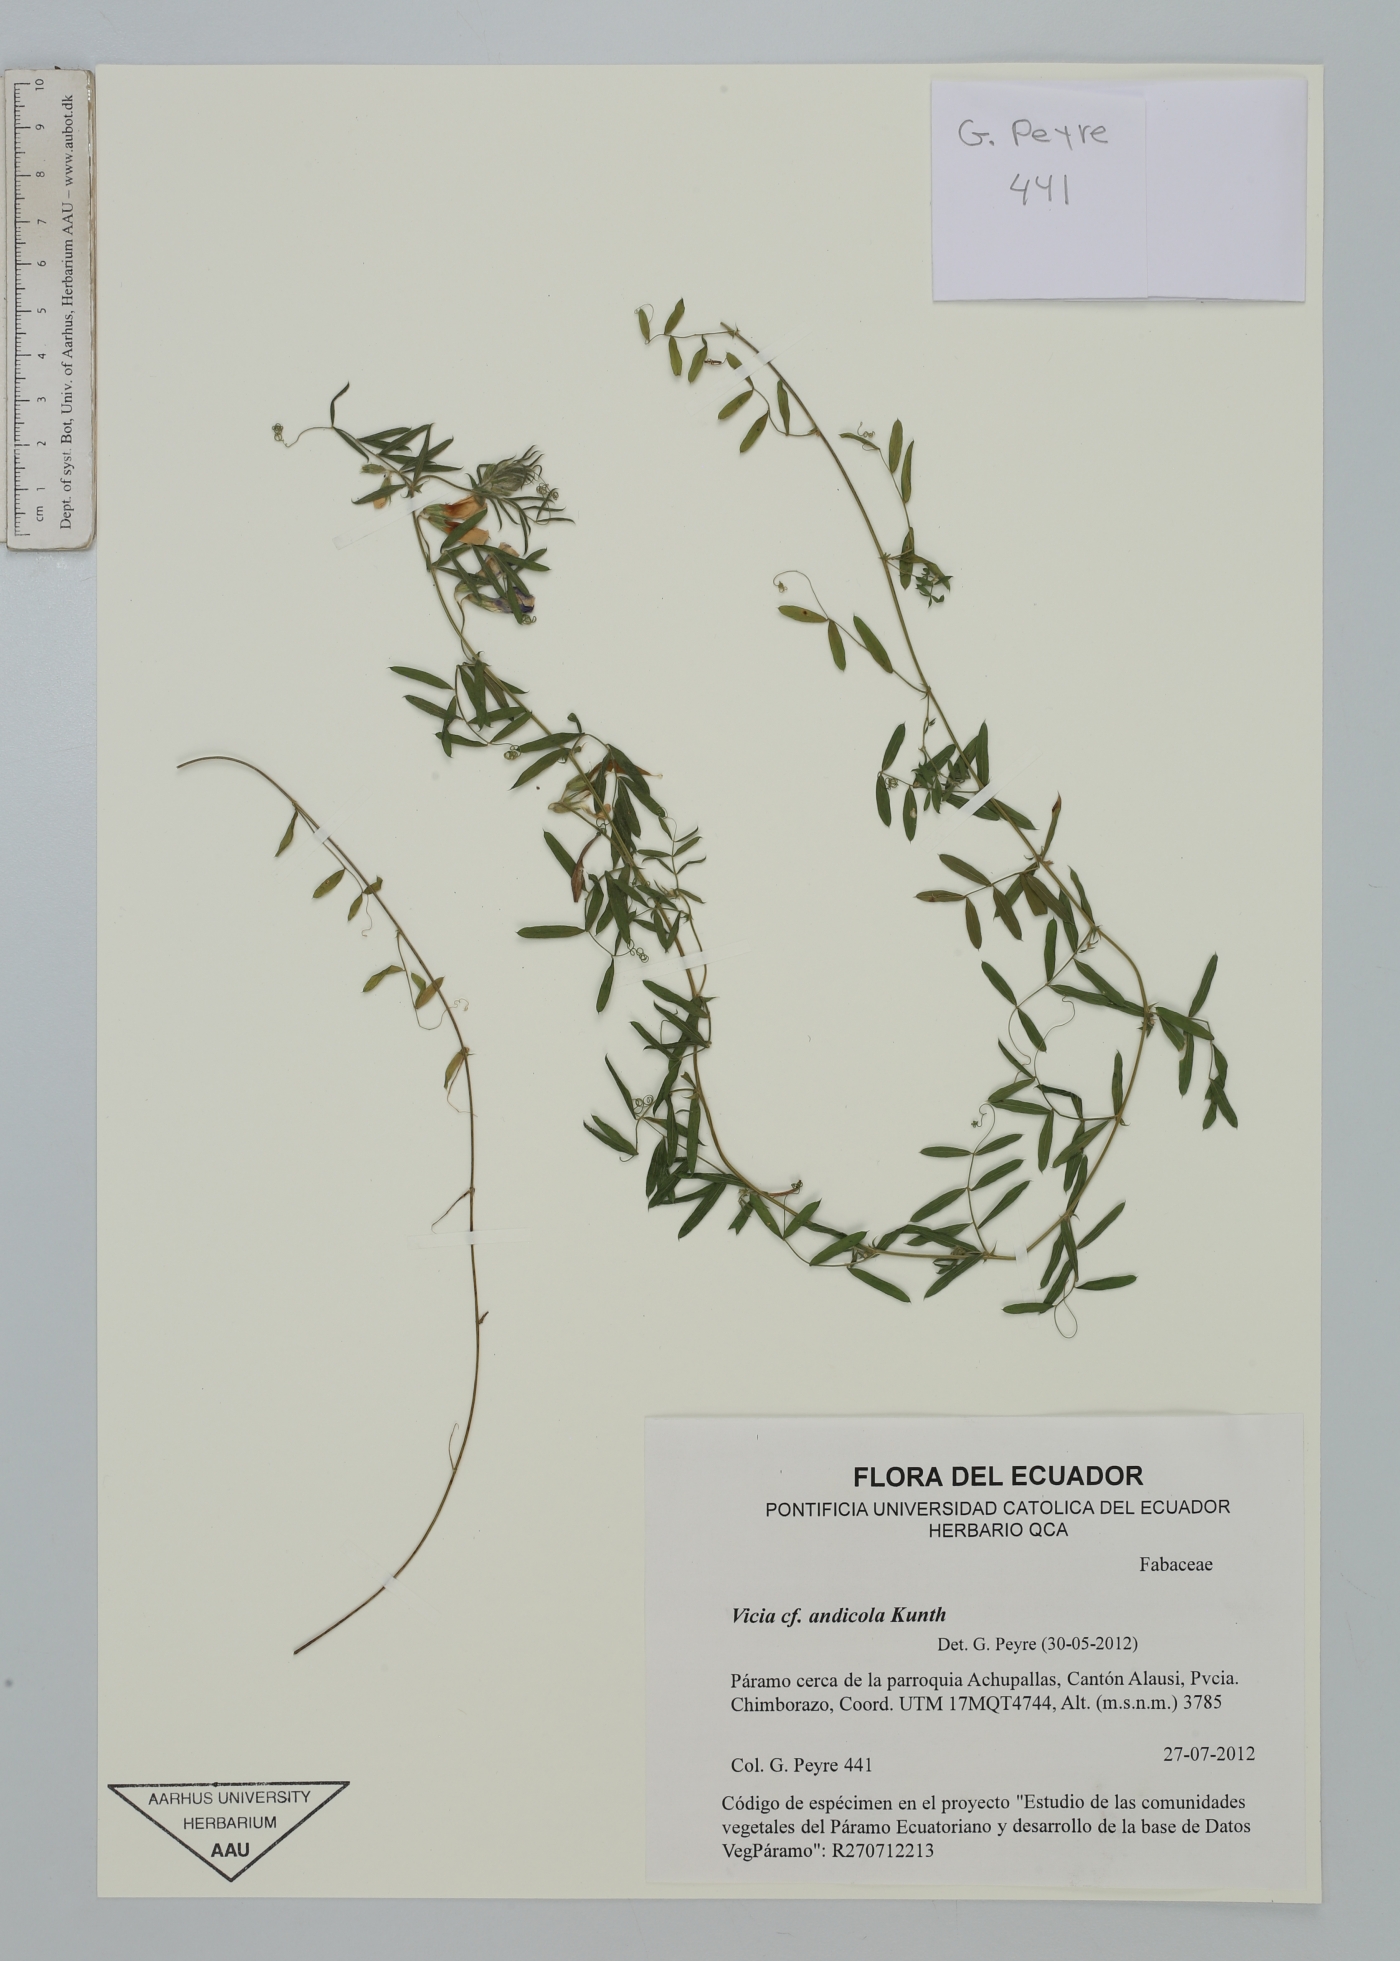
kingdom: Plantae
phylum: Tracheophyta
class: Magnoliopsida
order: Fabales
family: Fabaceae
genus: Vicia
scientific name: Vicia andicola
